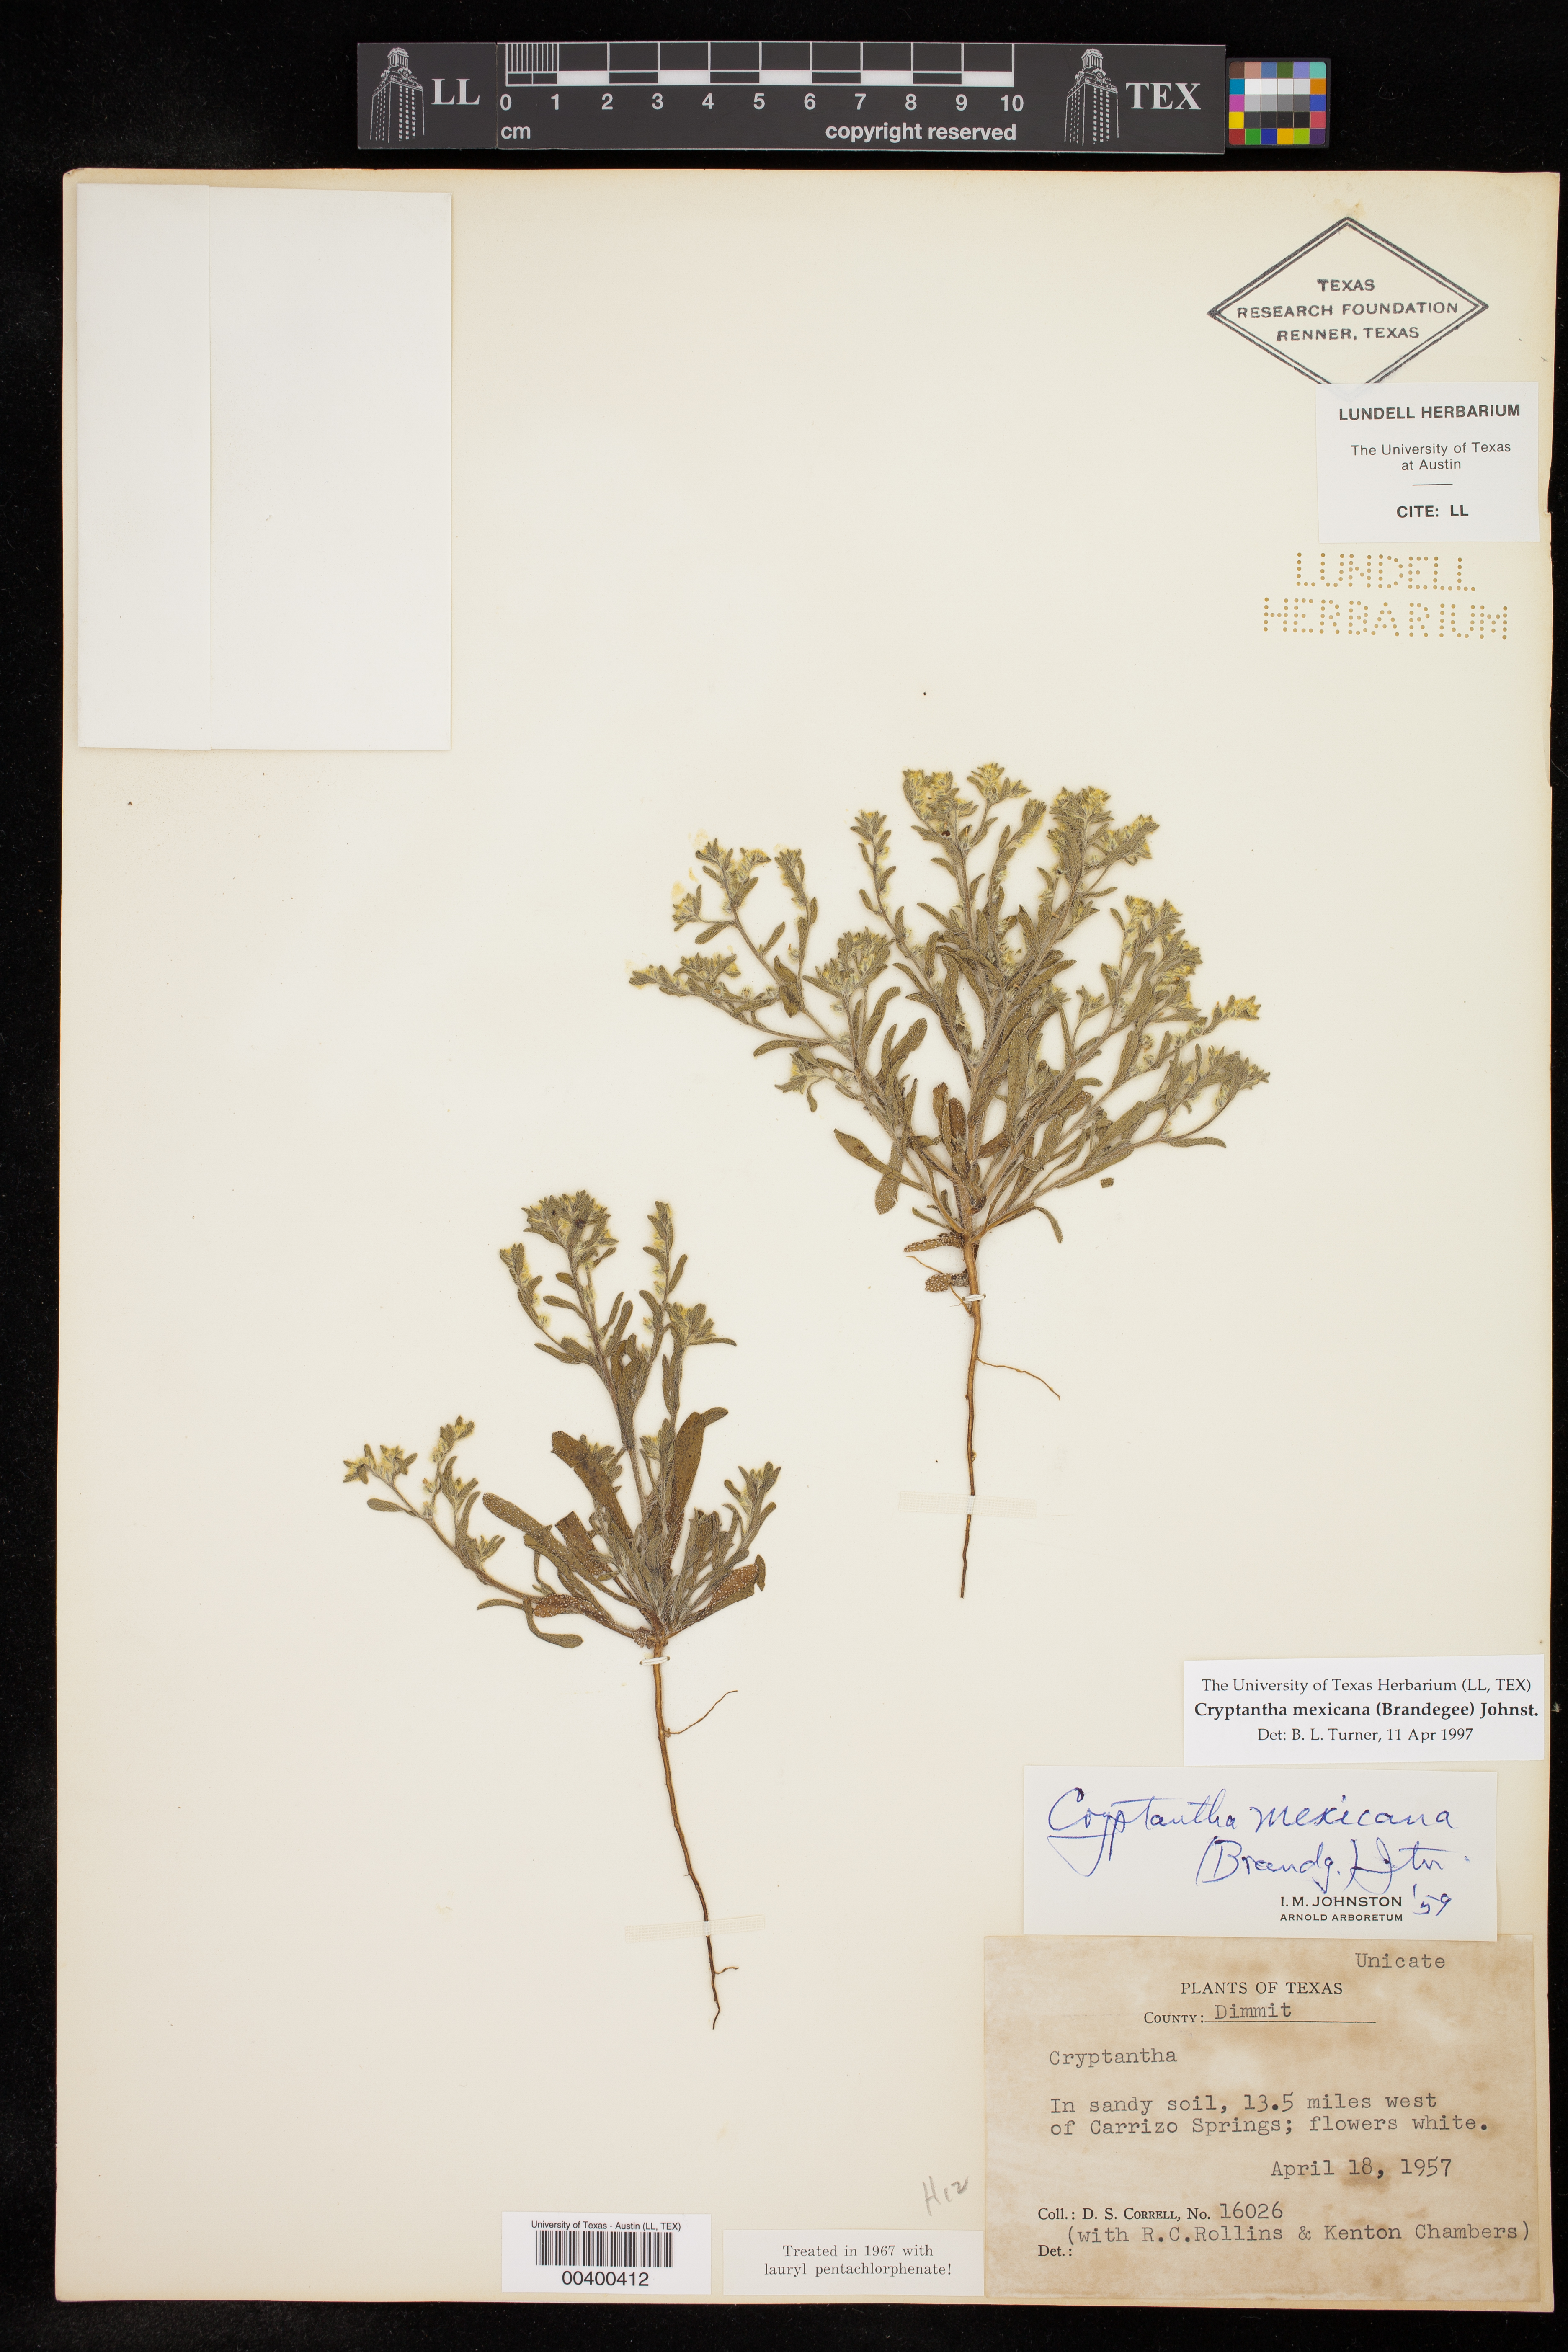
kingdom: Plantae
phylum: Tracheophyta
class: Magnoliopsida
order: Boraginales
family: Boraginaceae
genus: Johnstonella
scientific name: Johnstonella mexicana
